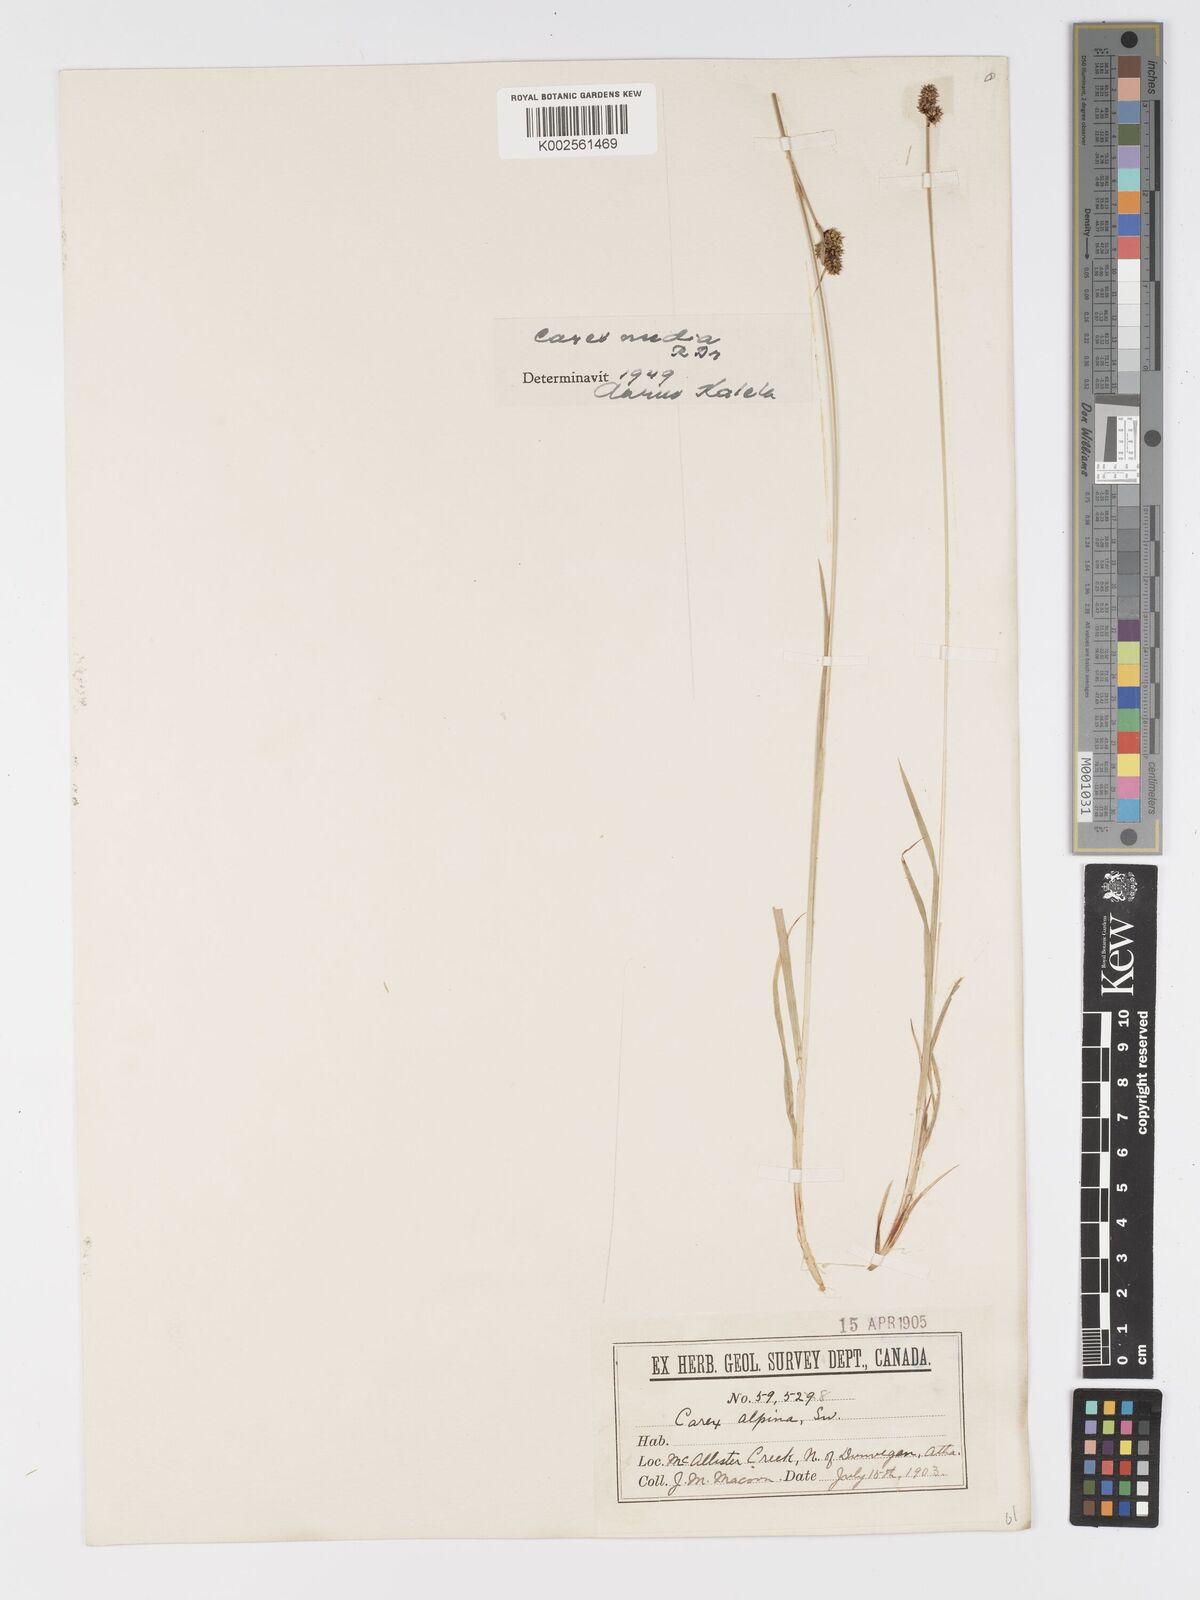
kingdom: Plantae
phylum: Tracheophyta
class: Liliopsida
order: Poales
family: Cyperaceae
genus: Carex
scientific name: Carex media
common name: Alpine sedge
